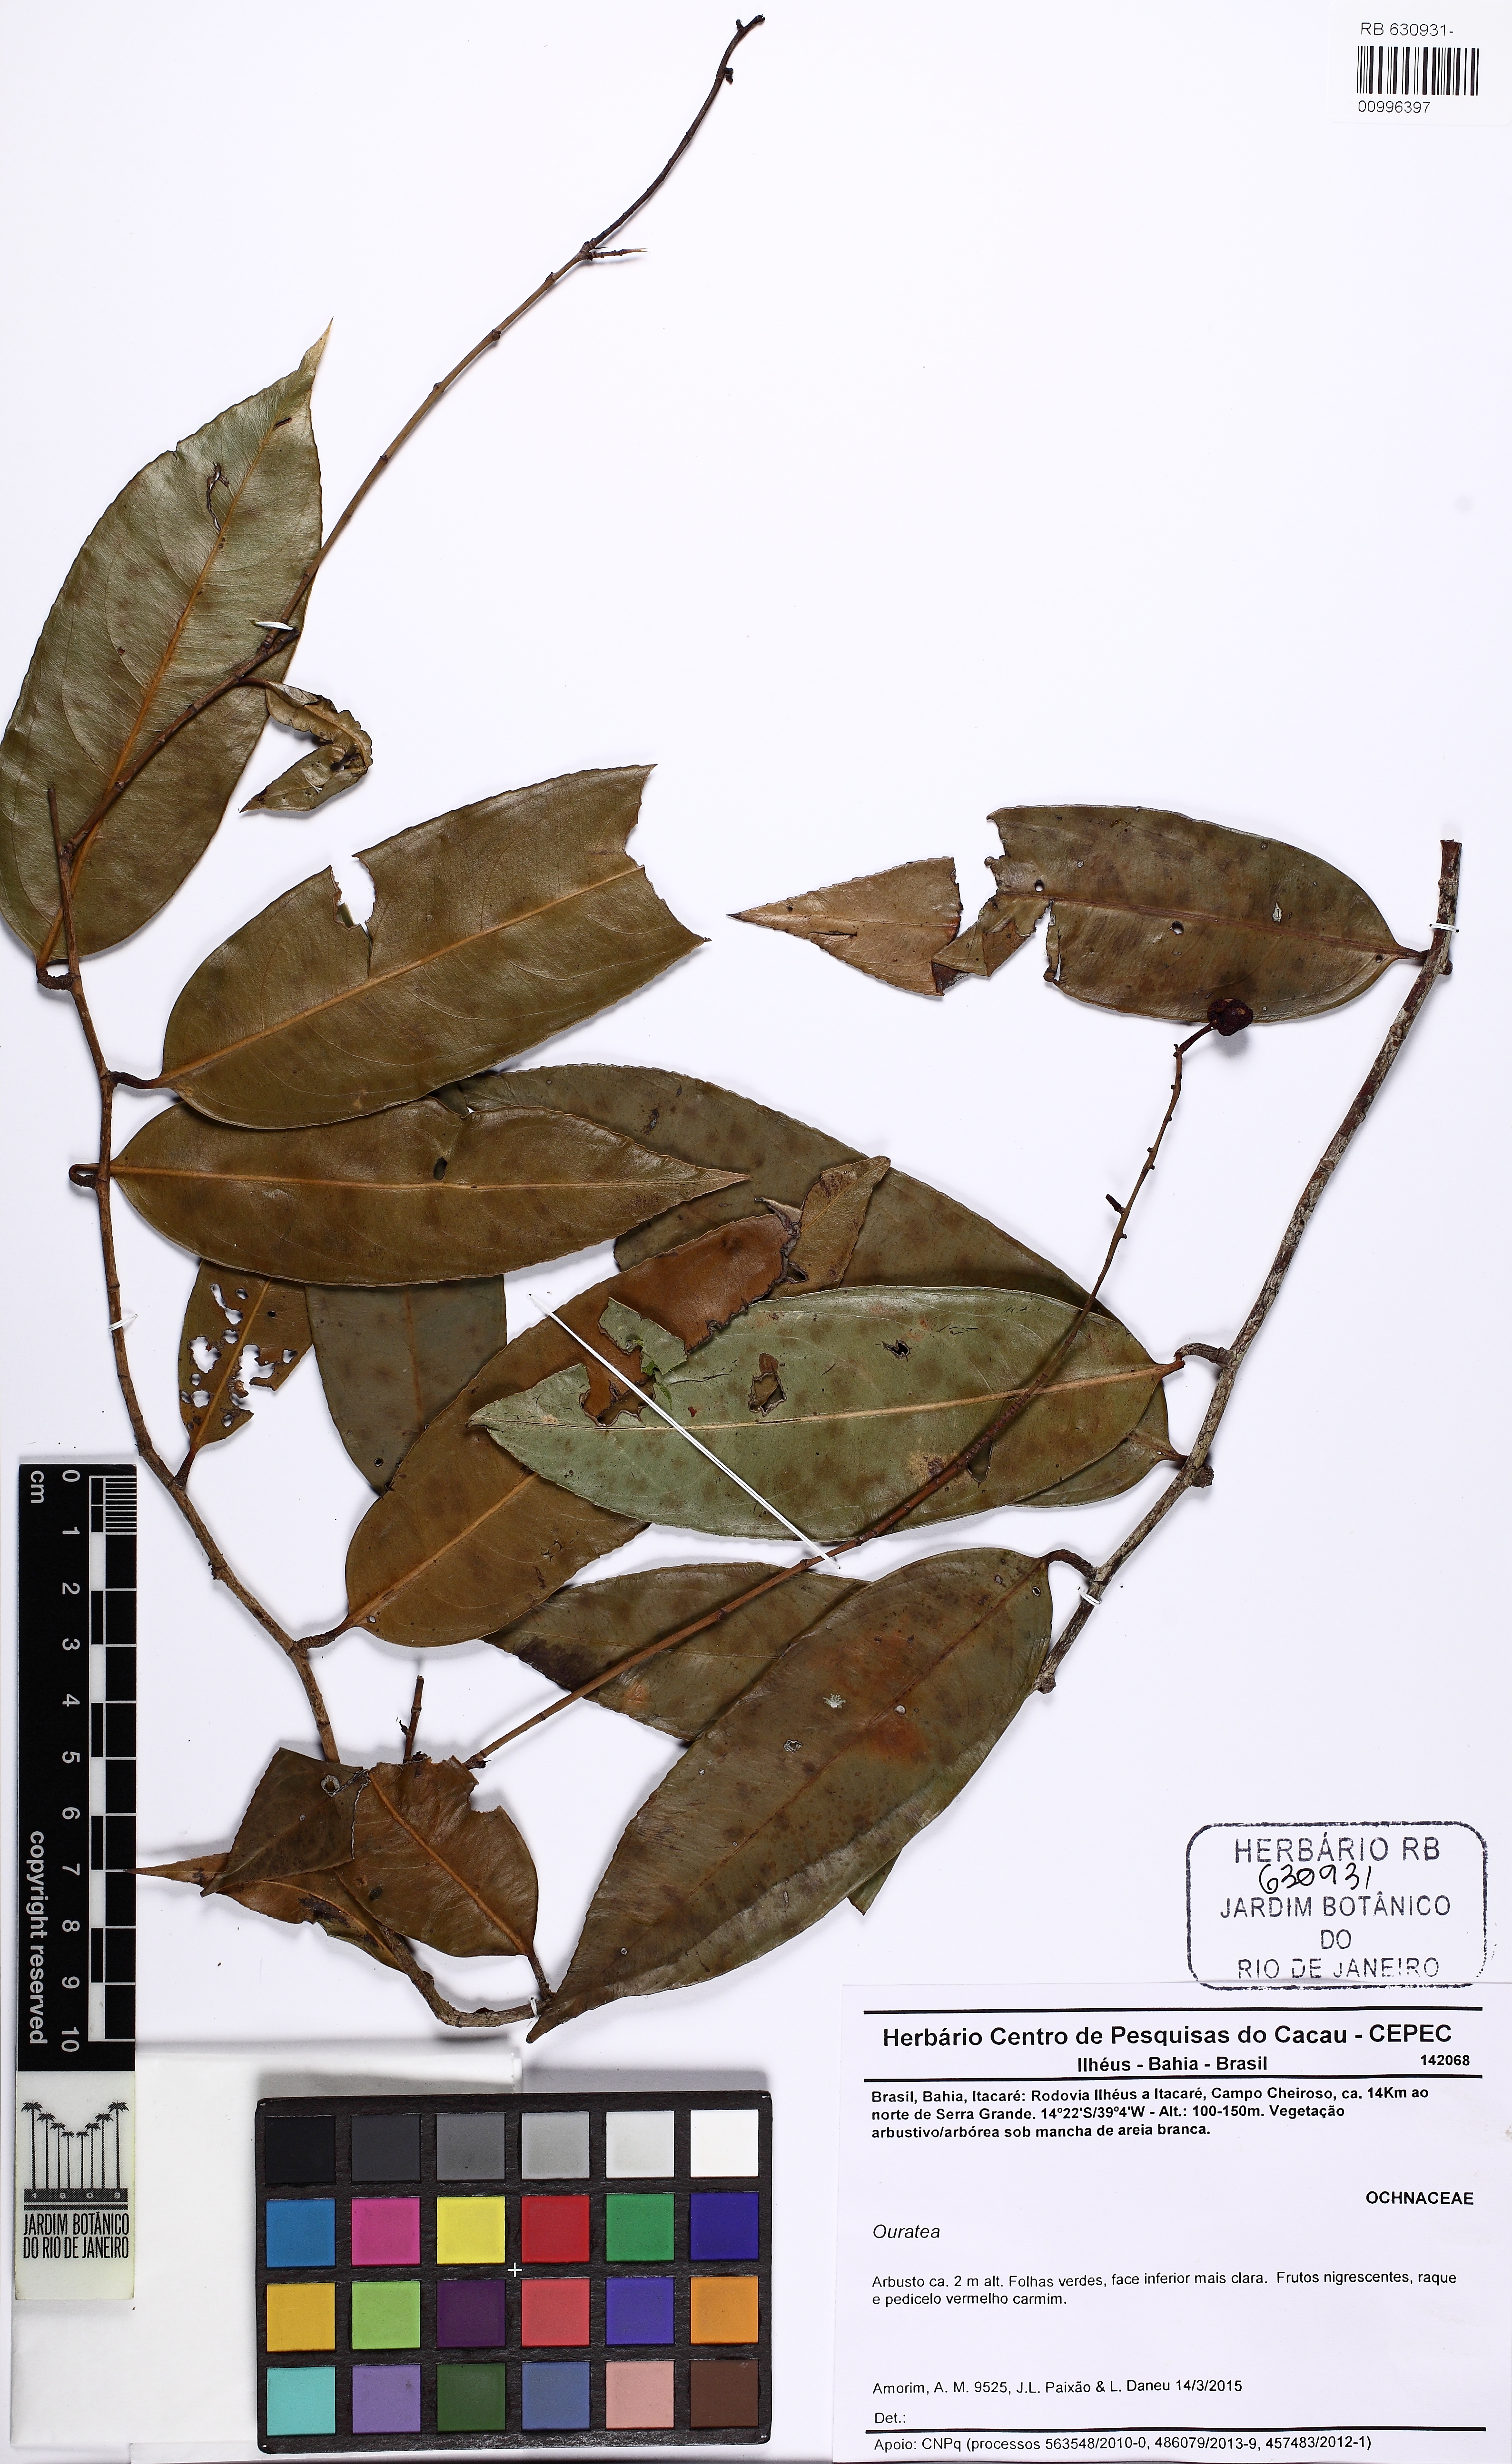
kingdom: Plantae
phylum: Tracheophyta
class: Magnoliopsida
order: Malpighiales
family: Ochnaceae
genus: Ouratea
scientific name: Ouratea
